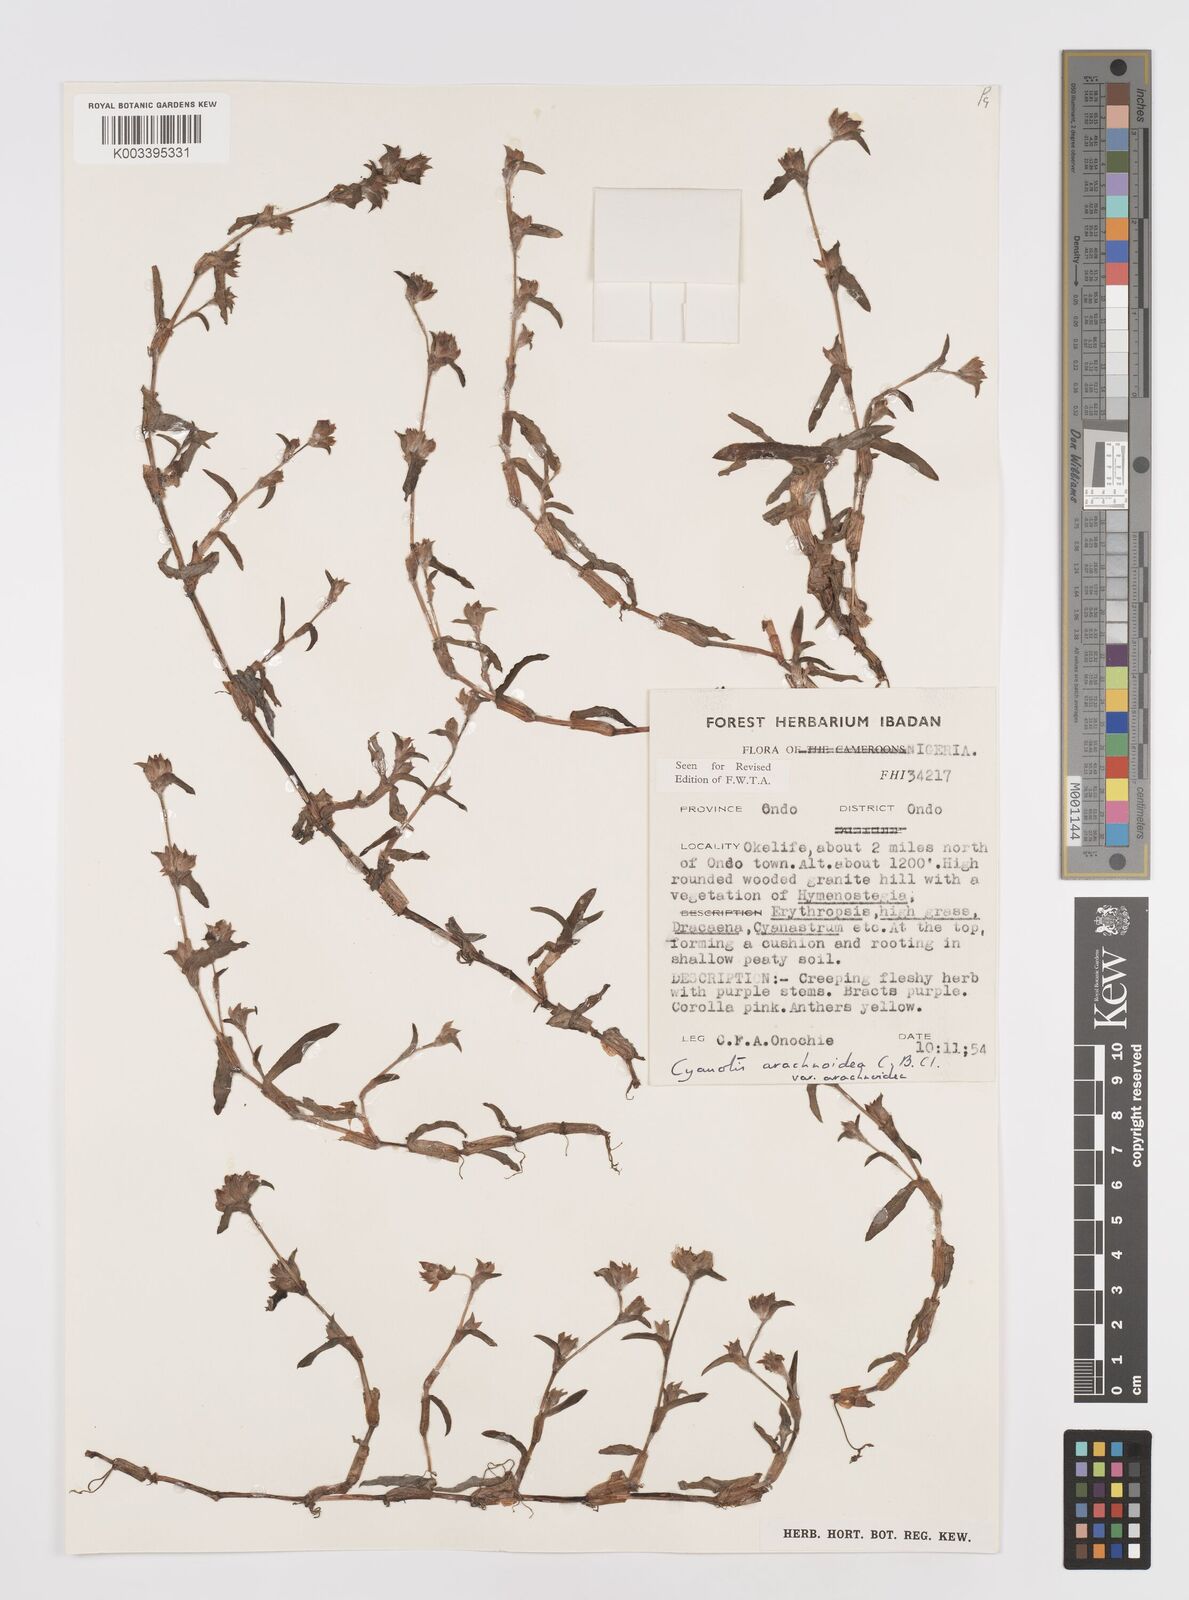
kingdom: Plantae
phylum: Tracheophyta
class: Liliopsida
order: Commelinales
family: Commelinaceae
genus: Cyanotis
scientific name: Cyanotis arachnoidea
